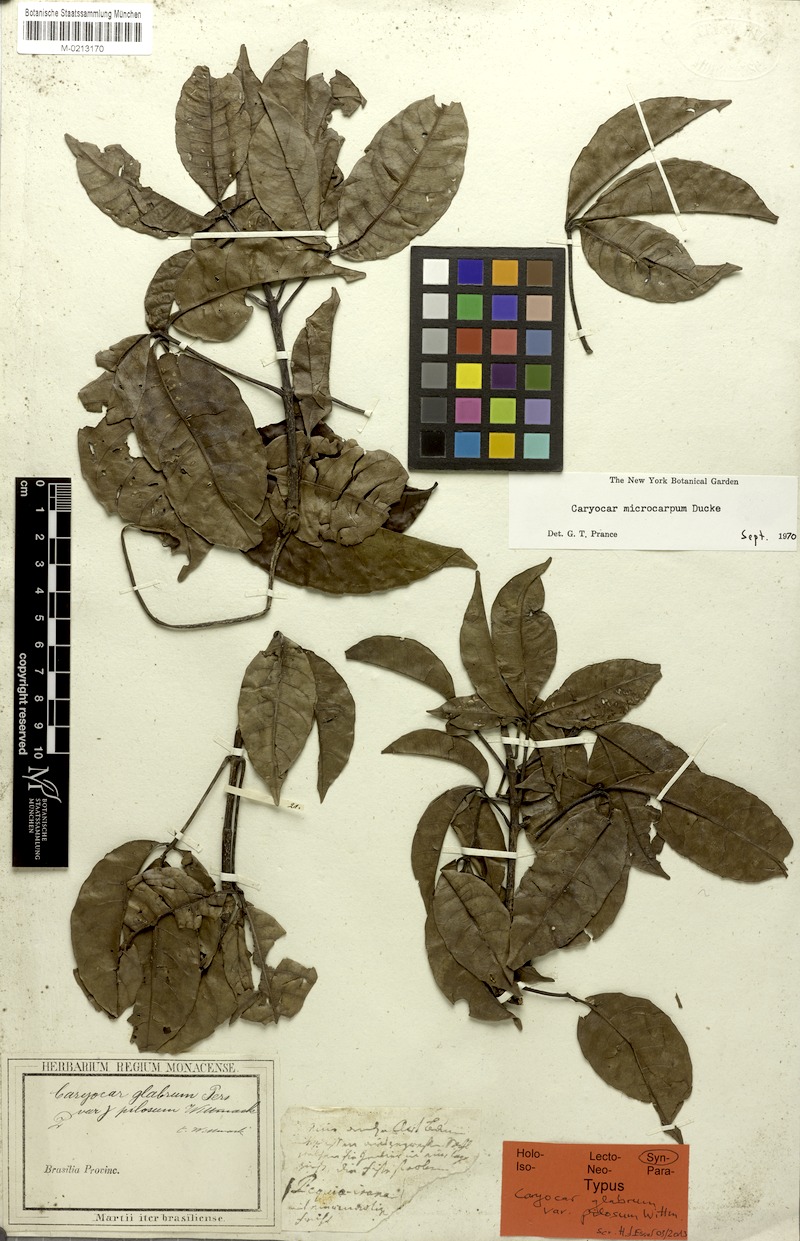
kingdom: Plantae
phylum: Tracheophyta
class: Magnoliopsida
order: Malpighiales
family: Caryocaraceae
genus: Caryocar
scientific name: Caryocar microcarpum
